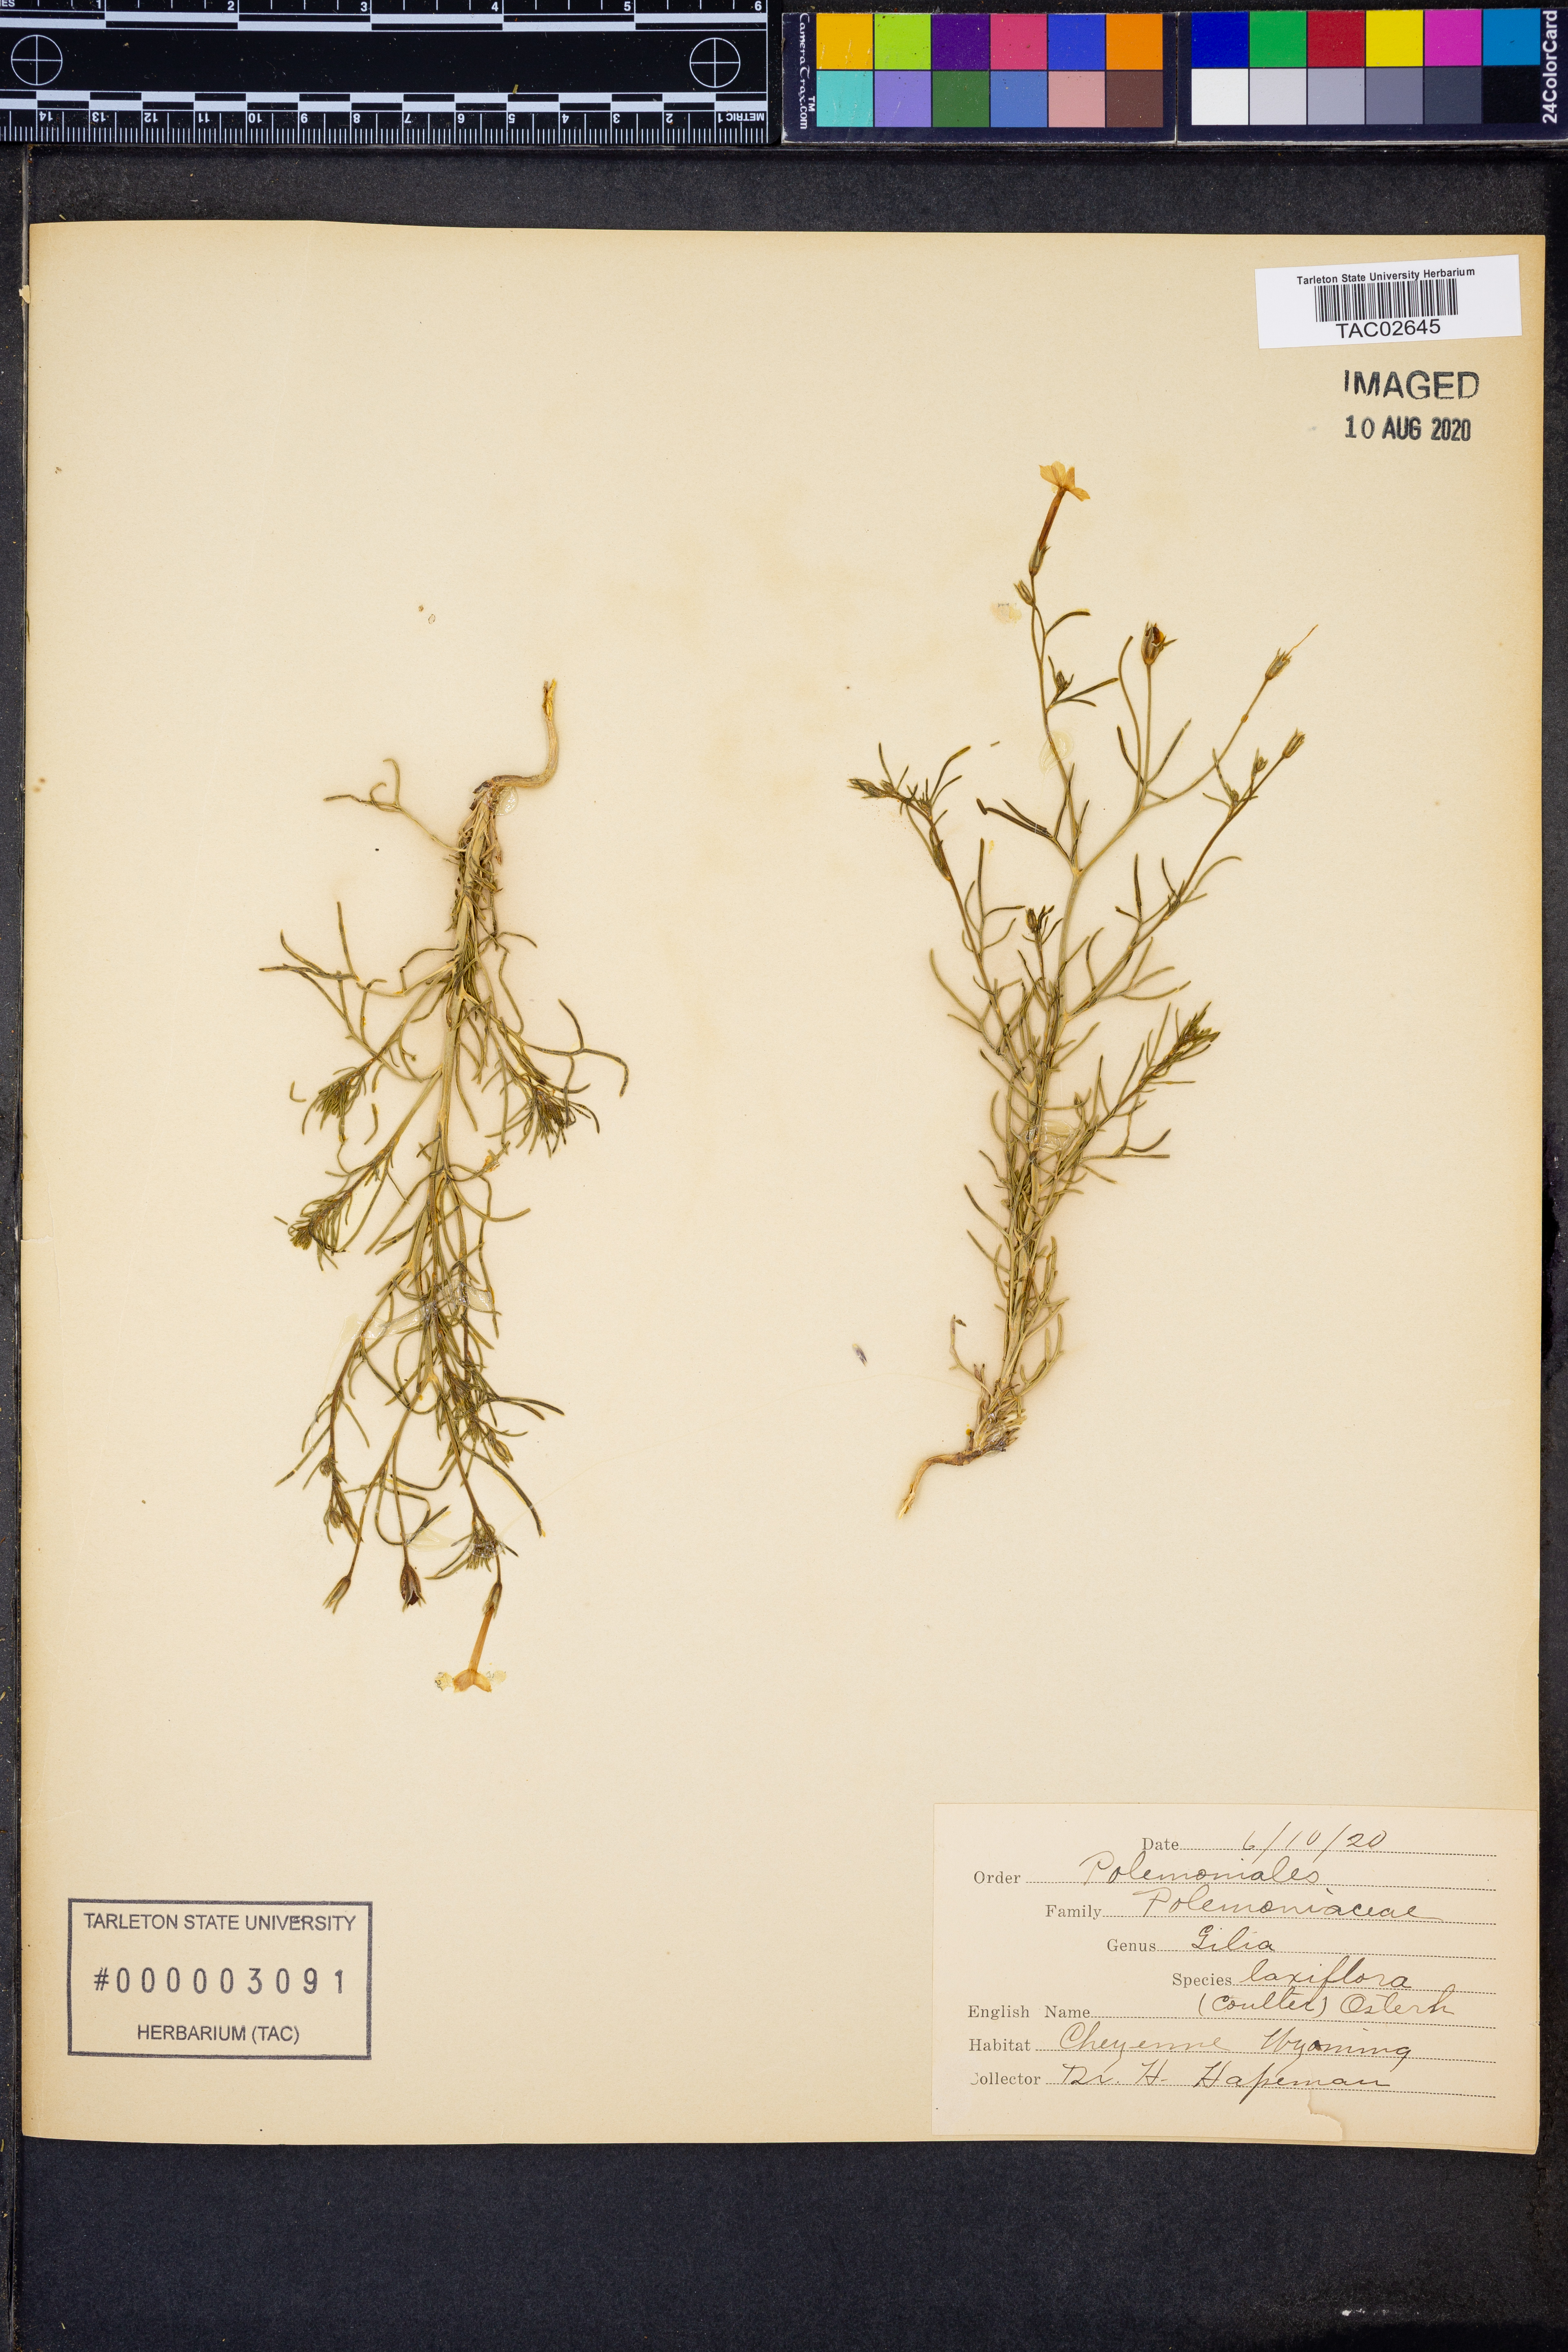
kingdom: Plantae
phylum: Tracheophyta
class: Magnoliopsida
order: Ericales
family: Polemoniaceae
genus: Ipomopsis
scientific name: Ipomopsis laxiflora
